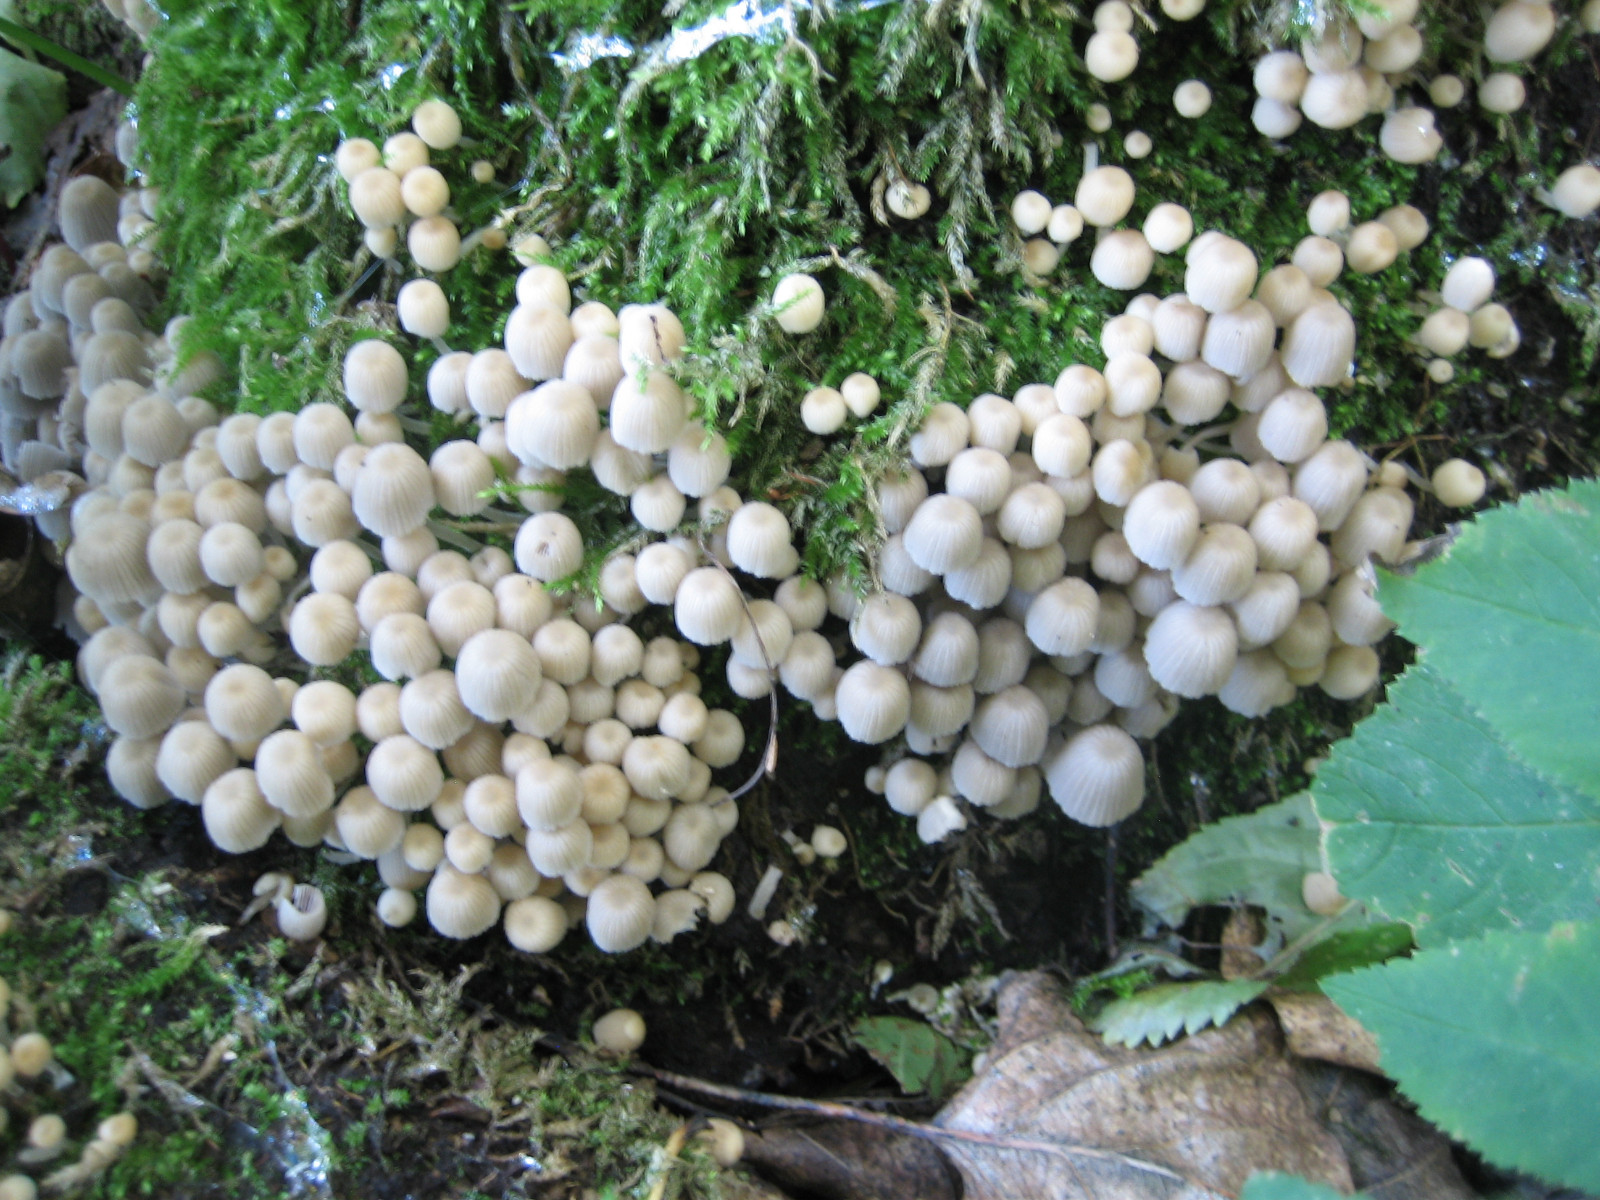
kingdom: Fungi
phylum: Basidiomycota
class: Agaricomycetes
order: Agaricales
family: Psathyrellaceae
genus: Coprinellus
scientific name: Coprinellus disseminatus
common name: bredsået blækhat
